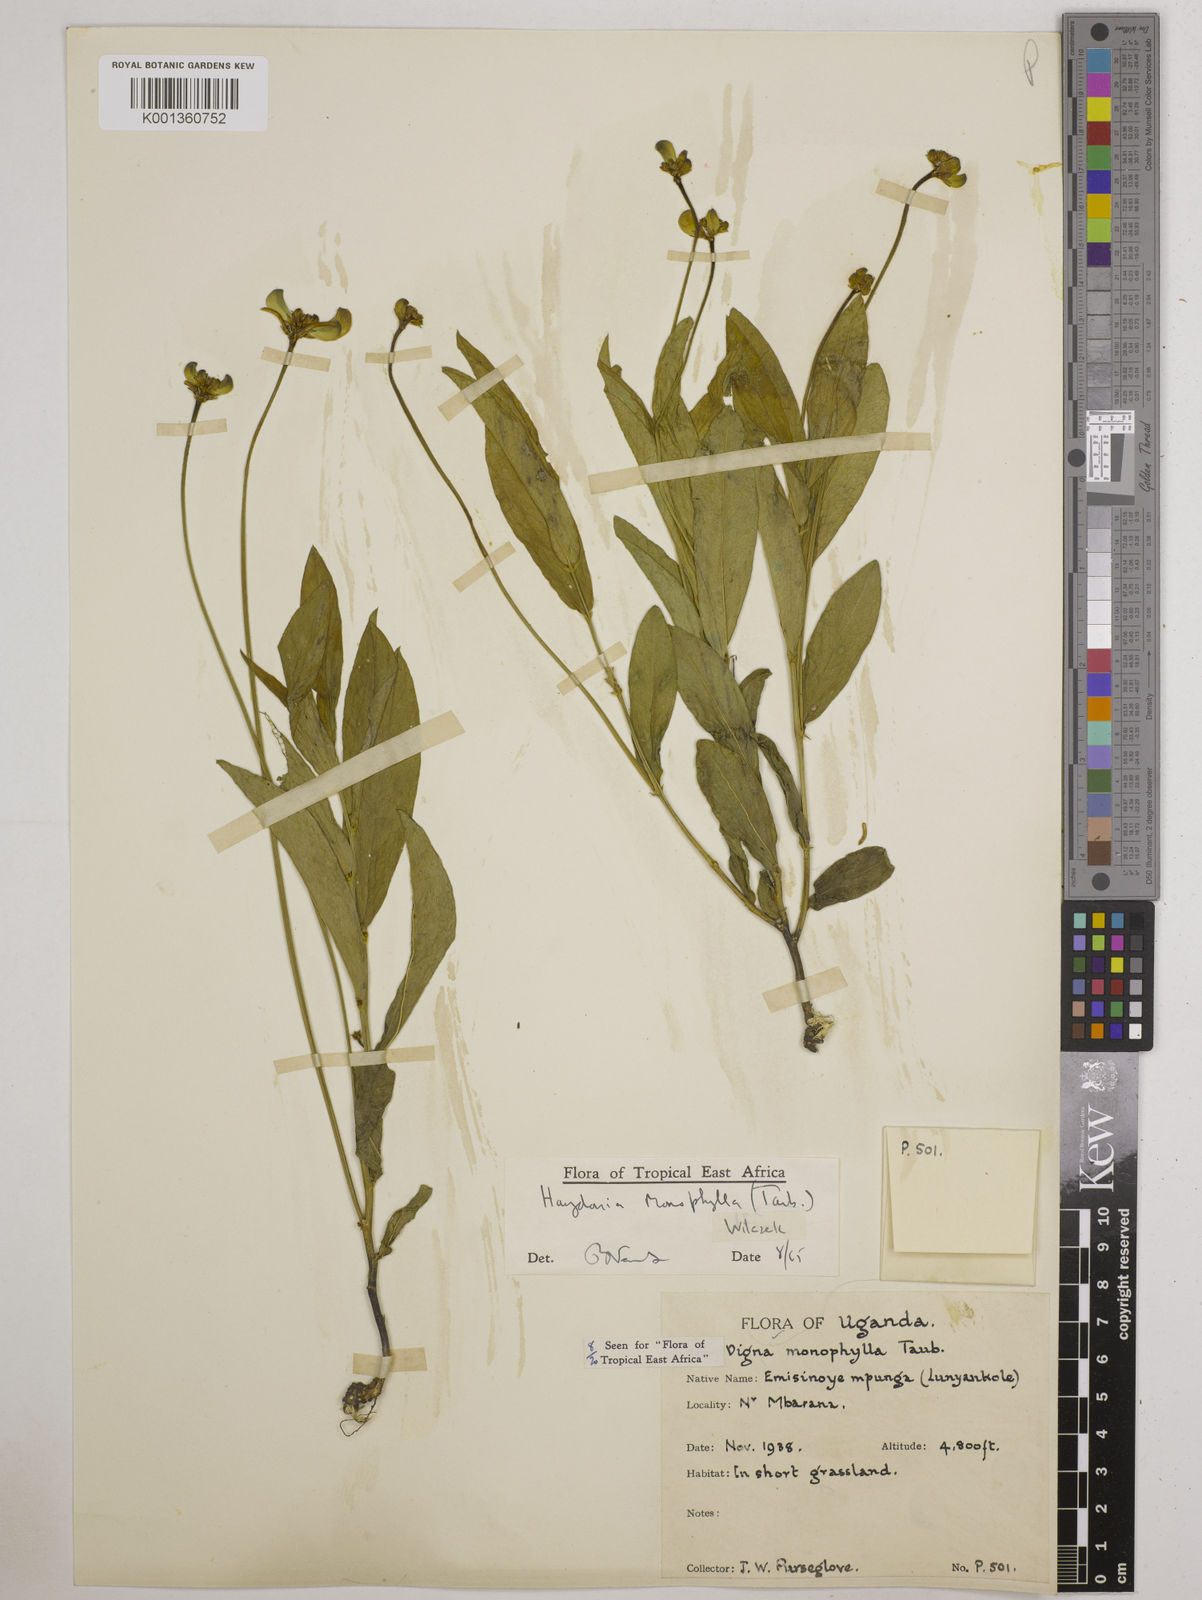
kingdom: Plantae
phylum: Tracheophyta
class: Magnoliopsida
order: Fabales
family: Fabaceae
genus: Vigna
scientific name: Vigna monophylla
